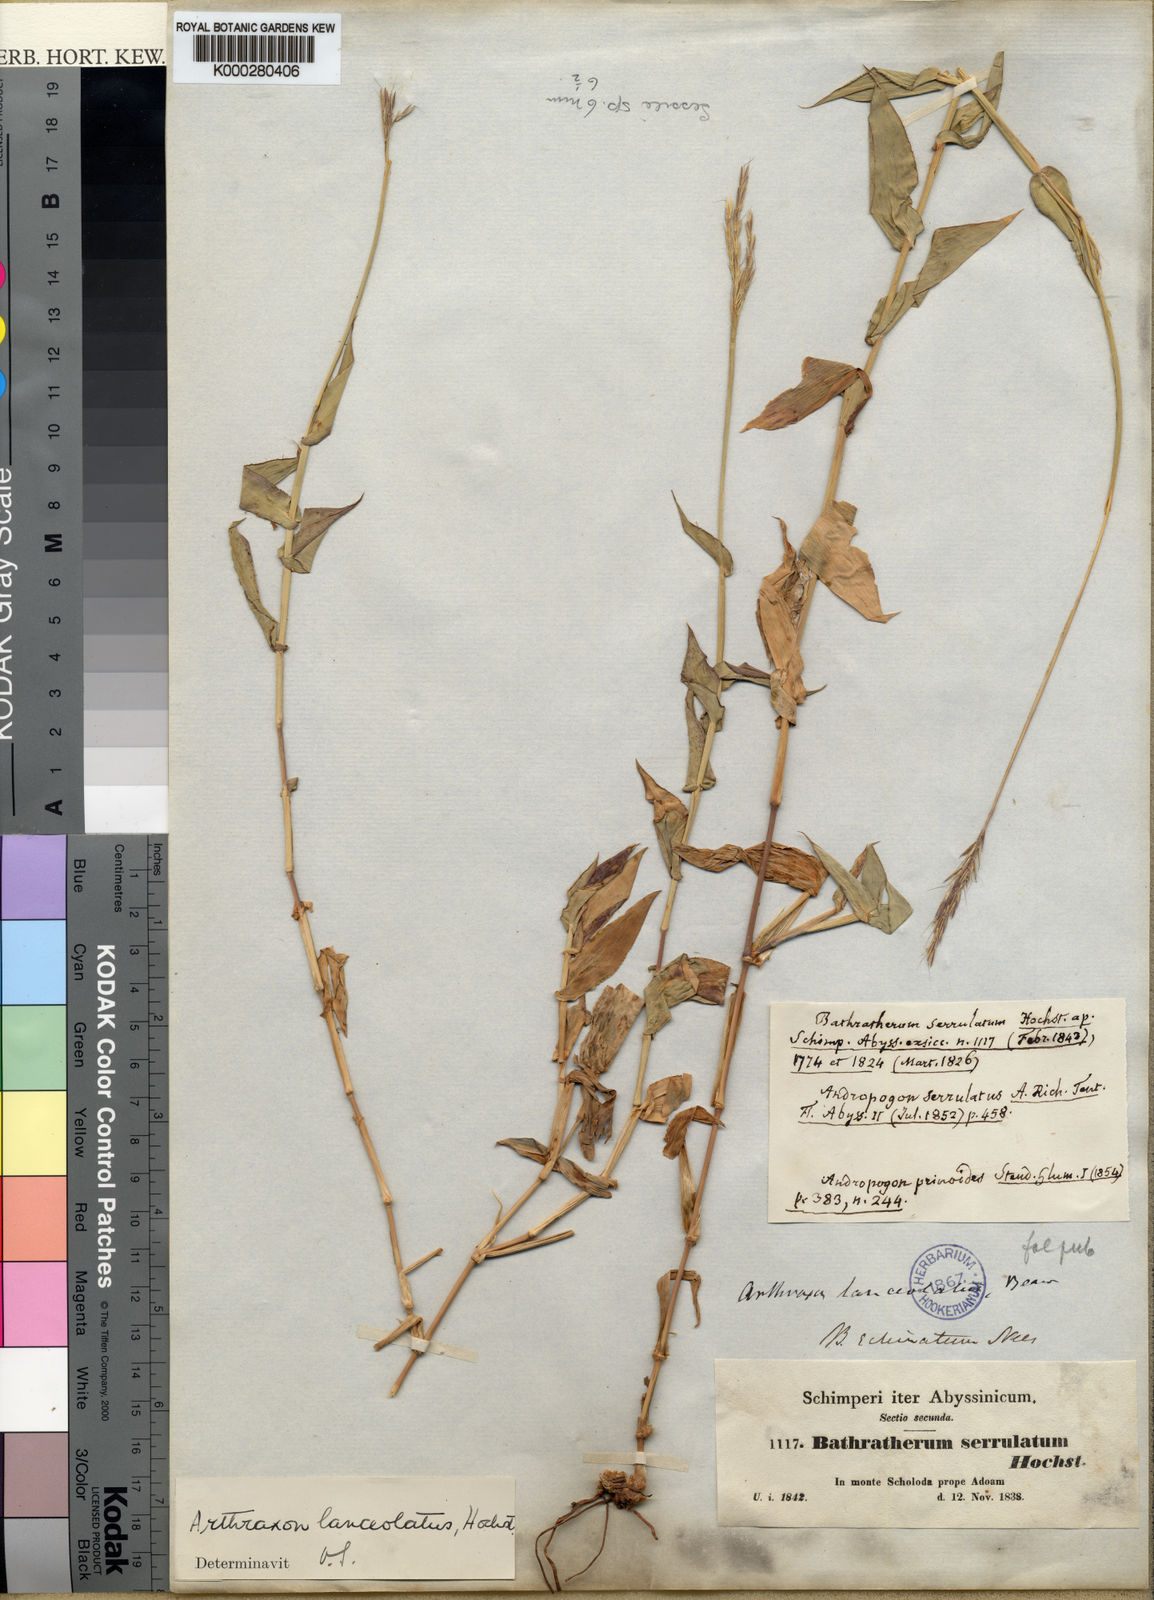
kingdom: Plantae
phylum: Tracheophyta
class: Liliopsida
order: Poales
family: Poaceae
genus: Arthraxon
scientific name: Arthraxon lanceolatus
